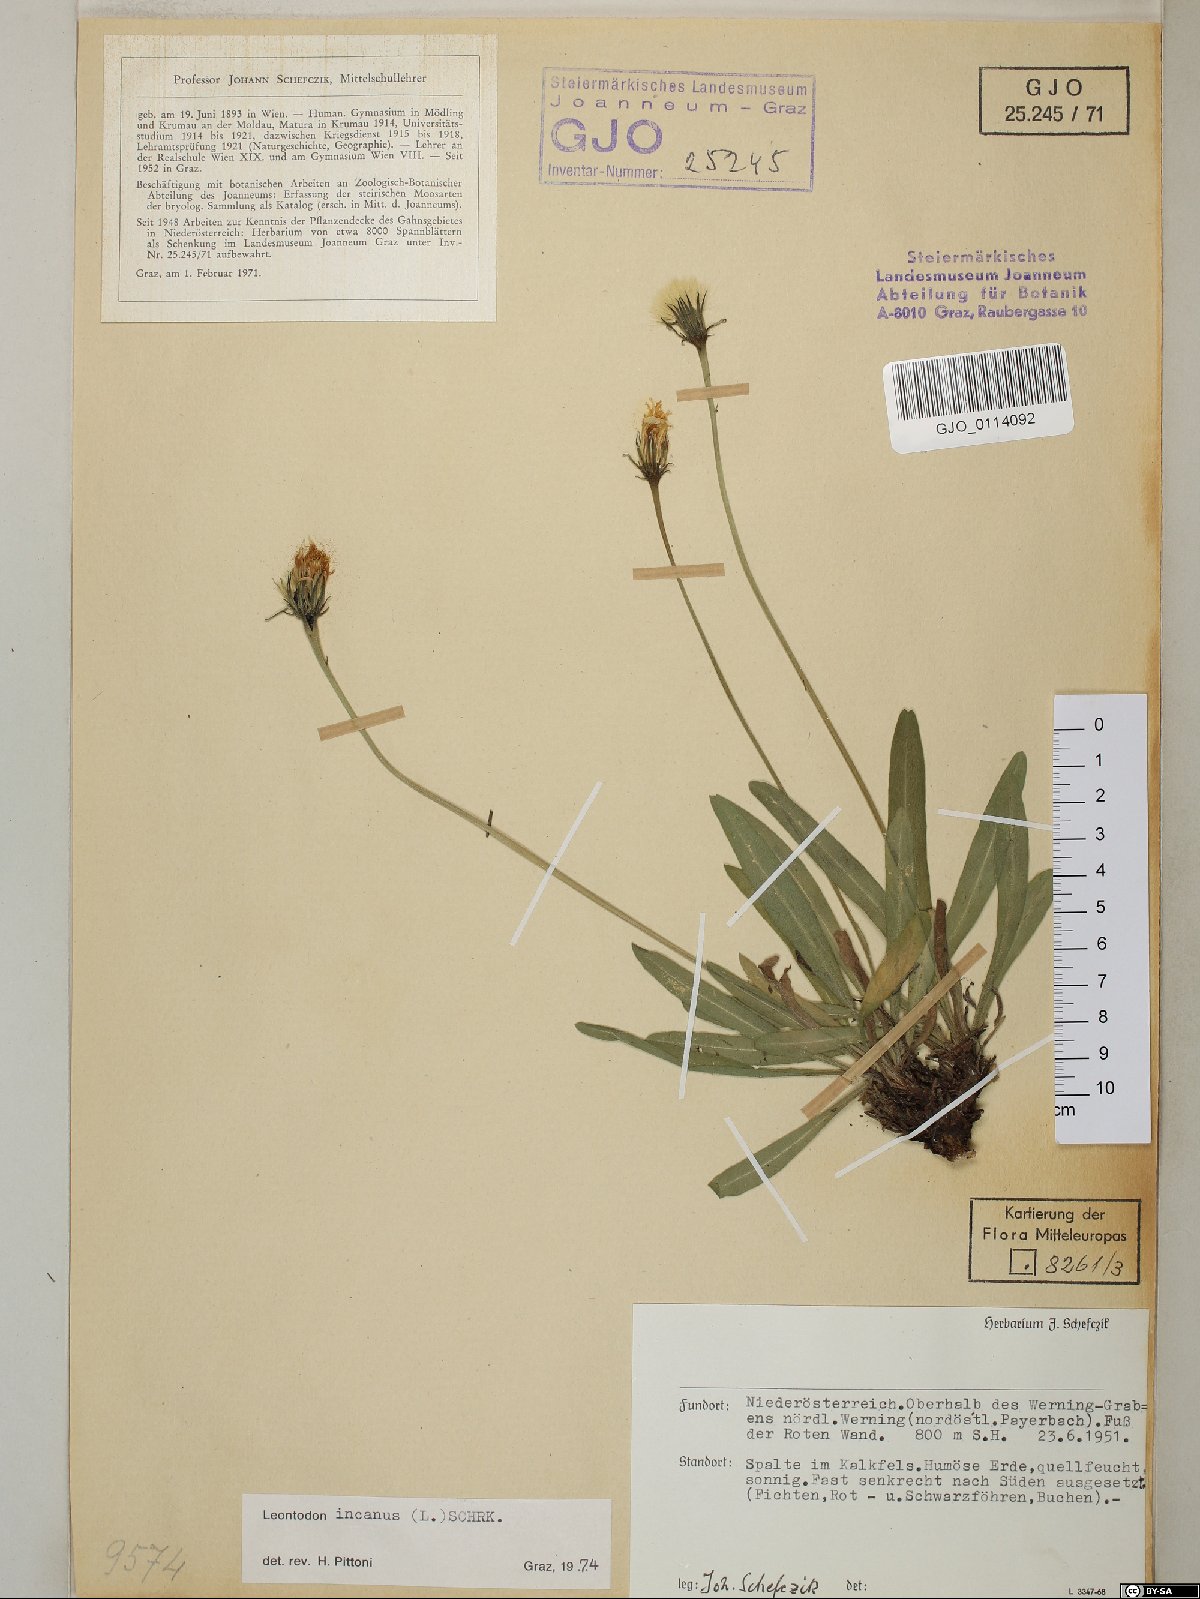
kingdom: Plantae
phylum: Tracheophyta
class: Magnoliopsida
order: Asterales
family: Asteraceae
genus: Leontodon
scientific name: Leontodon incanus
